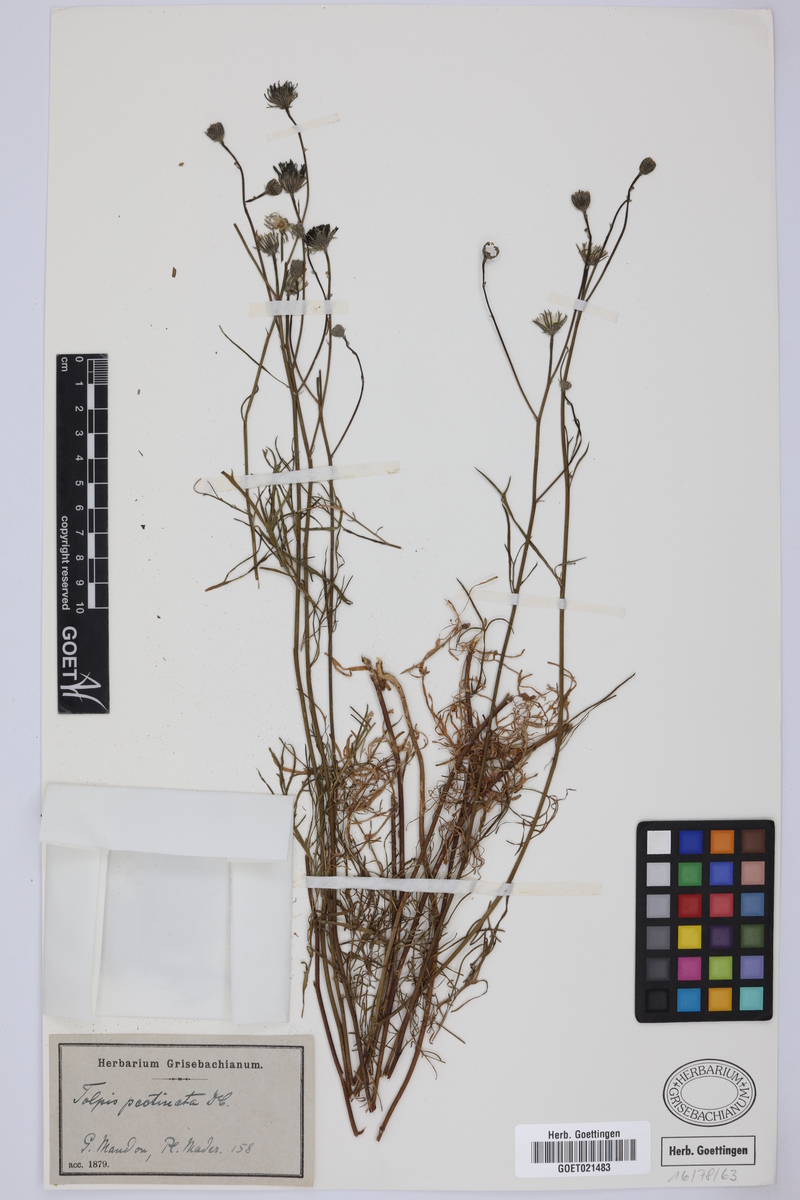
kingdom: Plantae
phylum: Tracheophyta
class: Magnoliopsida
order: Asterales
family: Asteraceae
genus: Tolpis
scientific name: Tolpis succulenta
